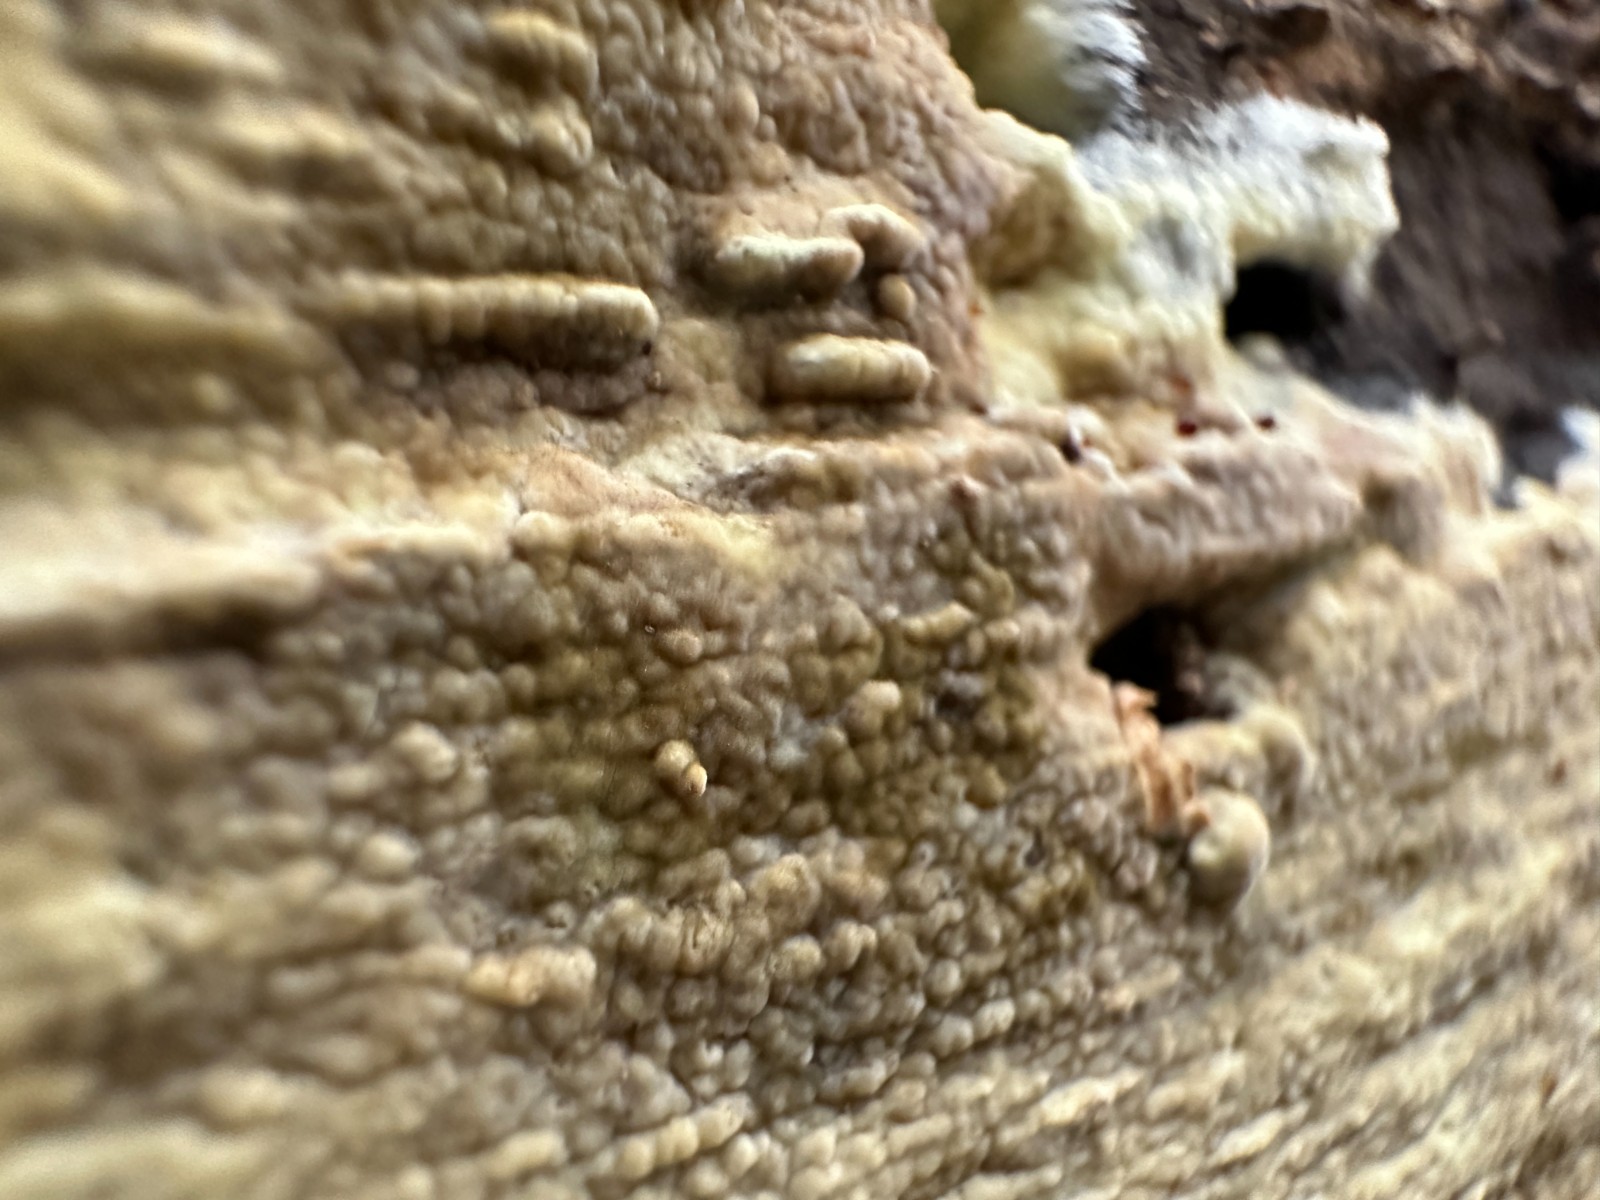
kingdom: Fungi
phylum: Basidiomycota
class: Agaricomycetes
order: Boletales
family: Coniophoraceae
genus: Coniophora
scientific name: Coniophora puteana
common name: gul tømmersvamp
